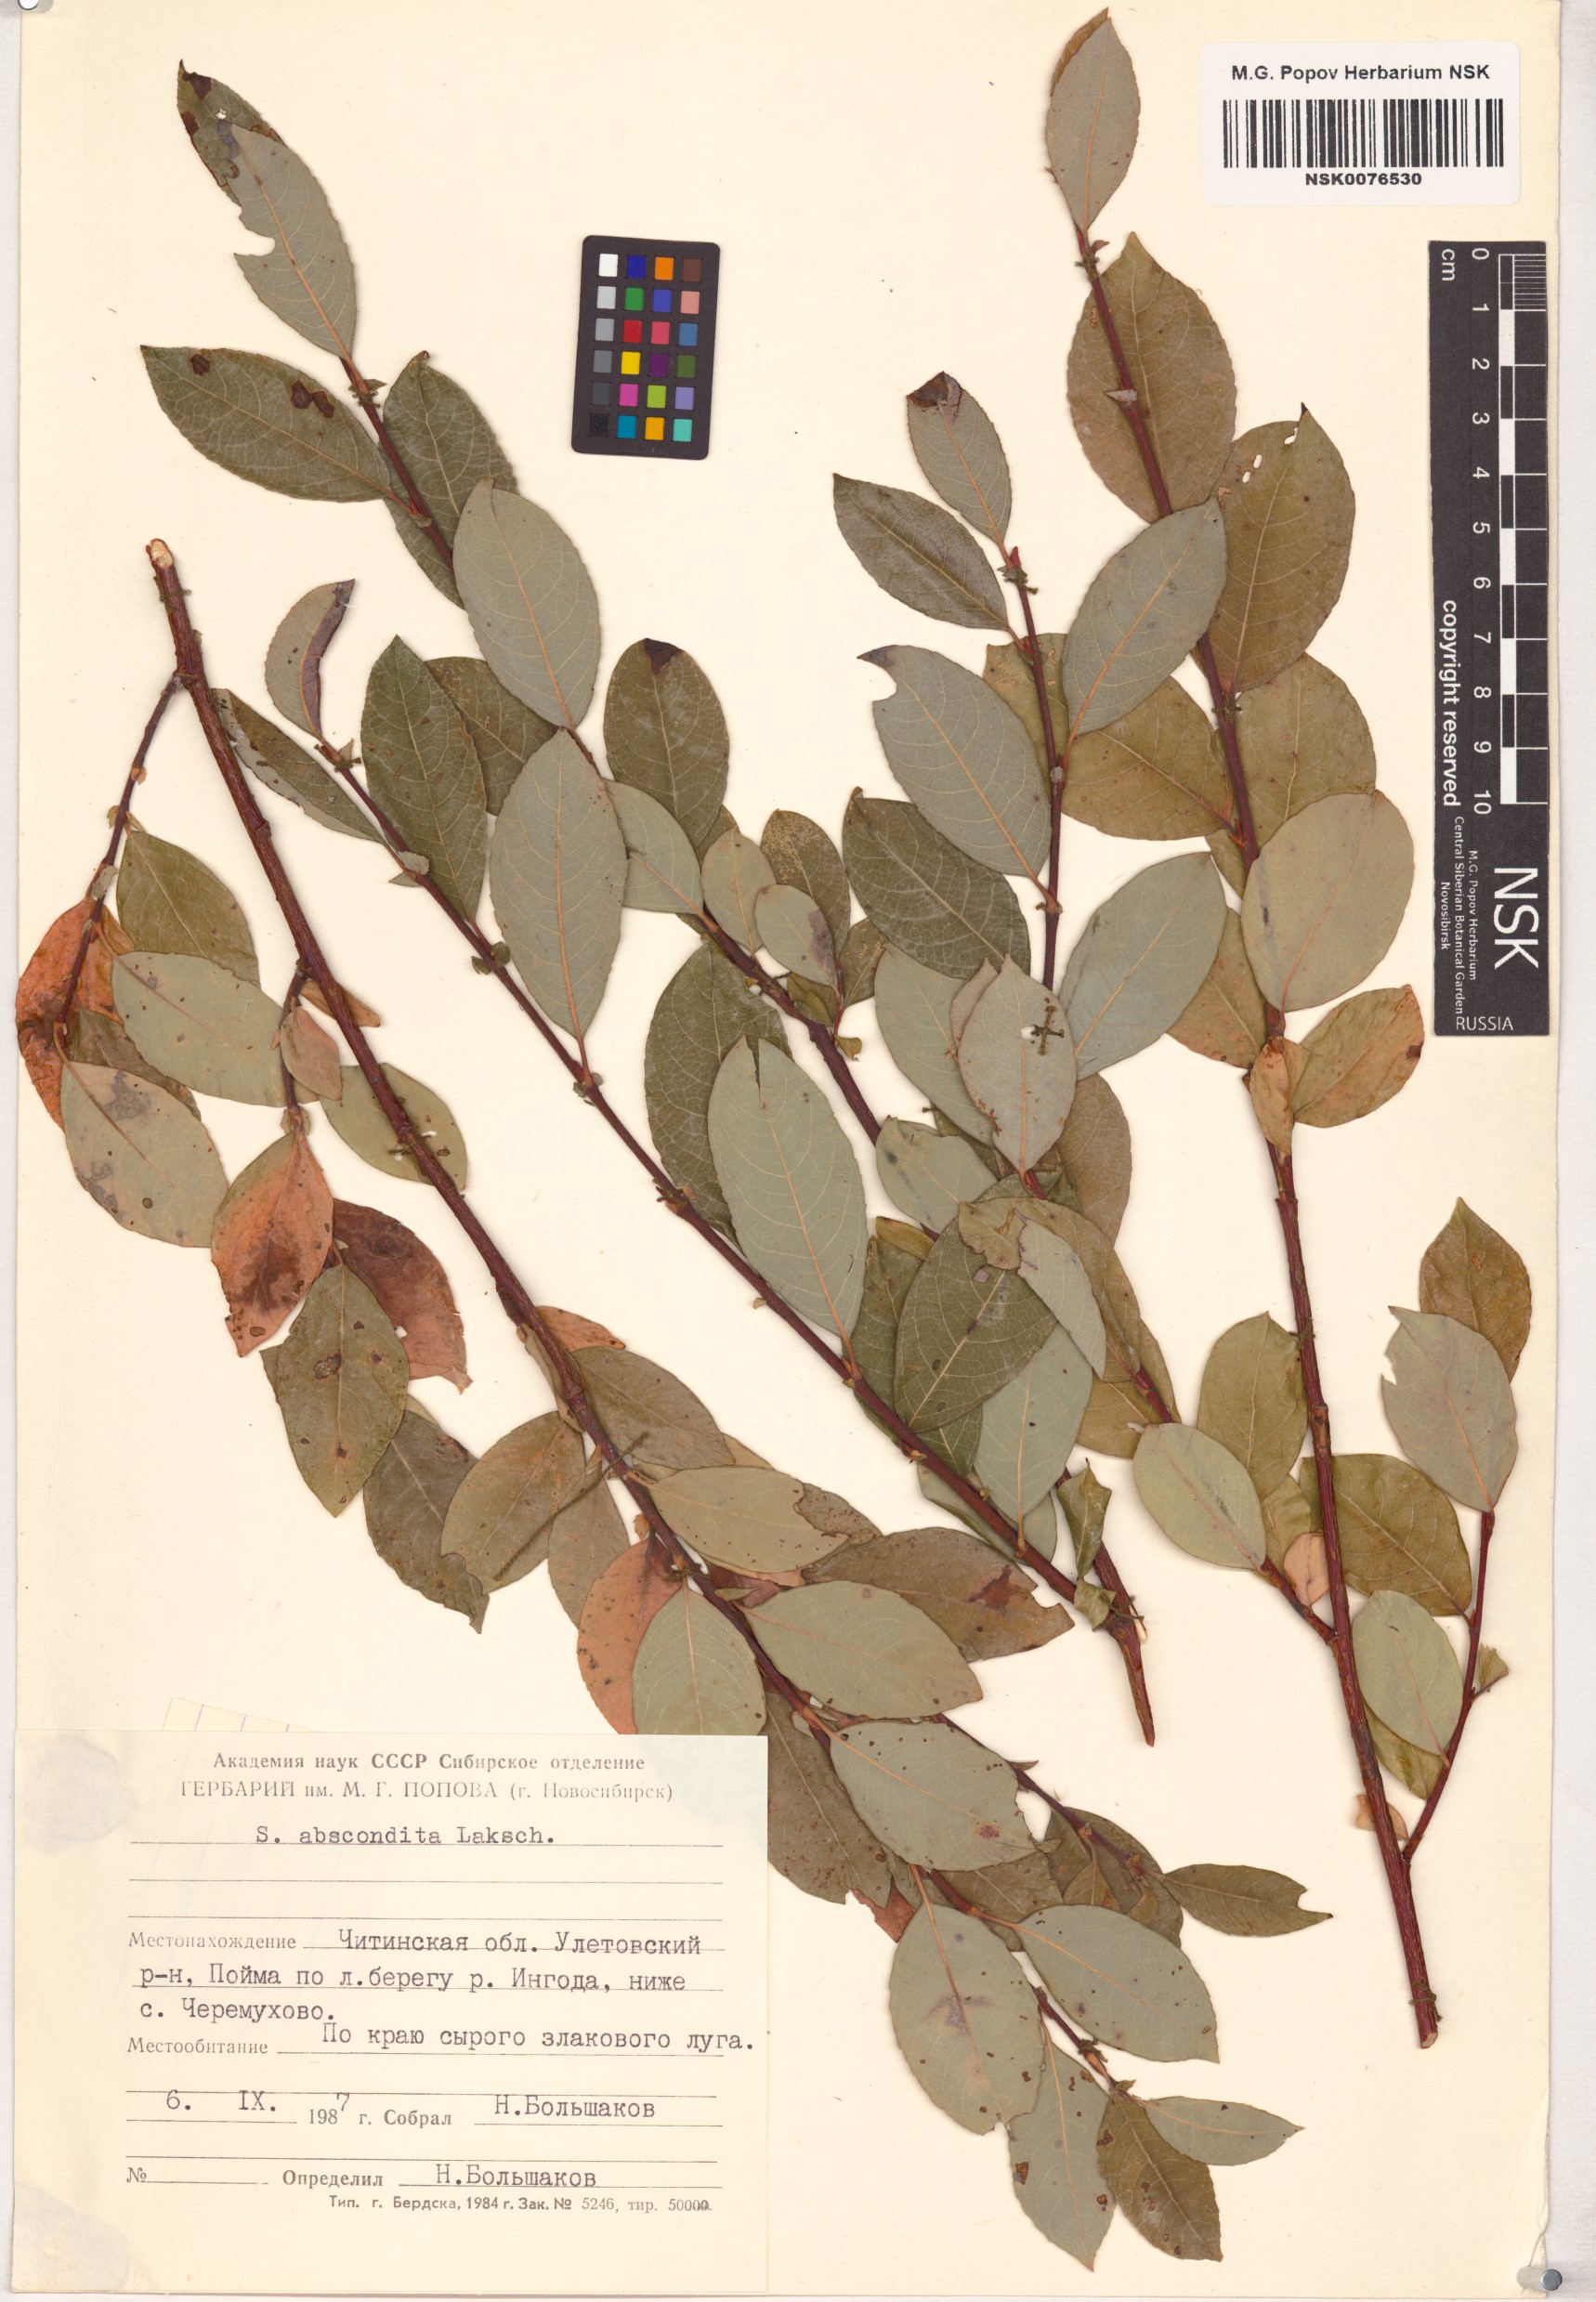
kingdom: Plantae
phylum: Tracheophyta
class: Magnoliopsida
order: Malpighiales
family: Salicaceae
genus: Salix
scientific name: Salix abscondita
